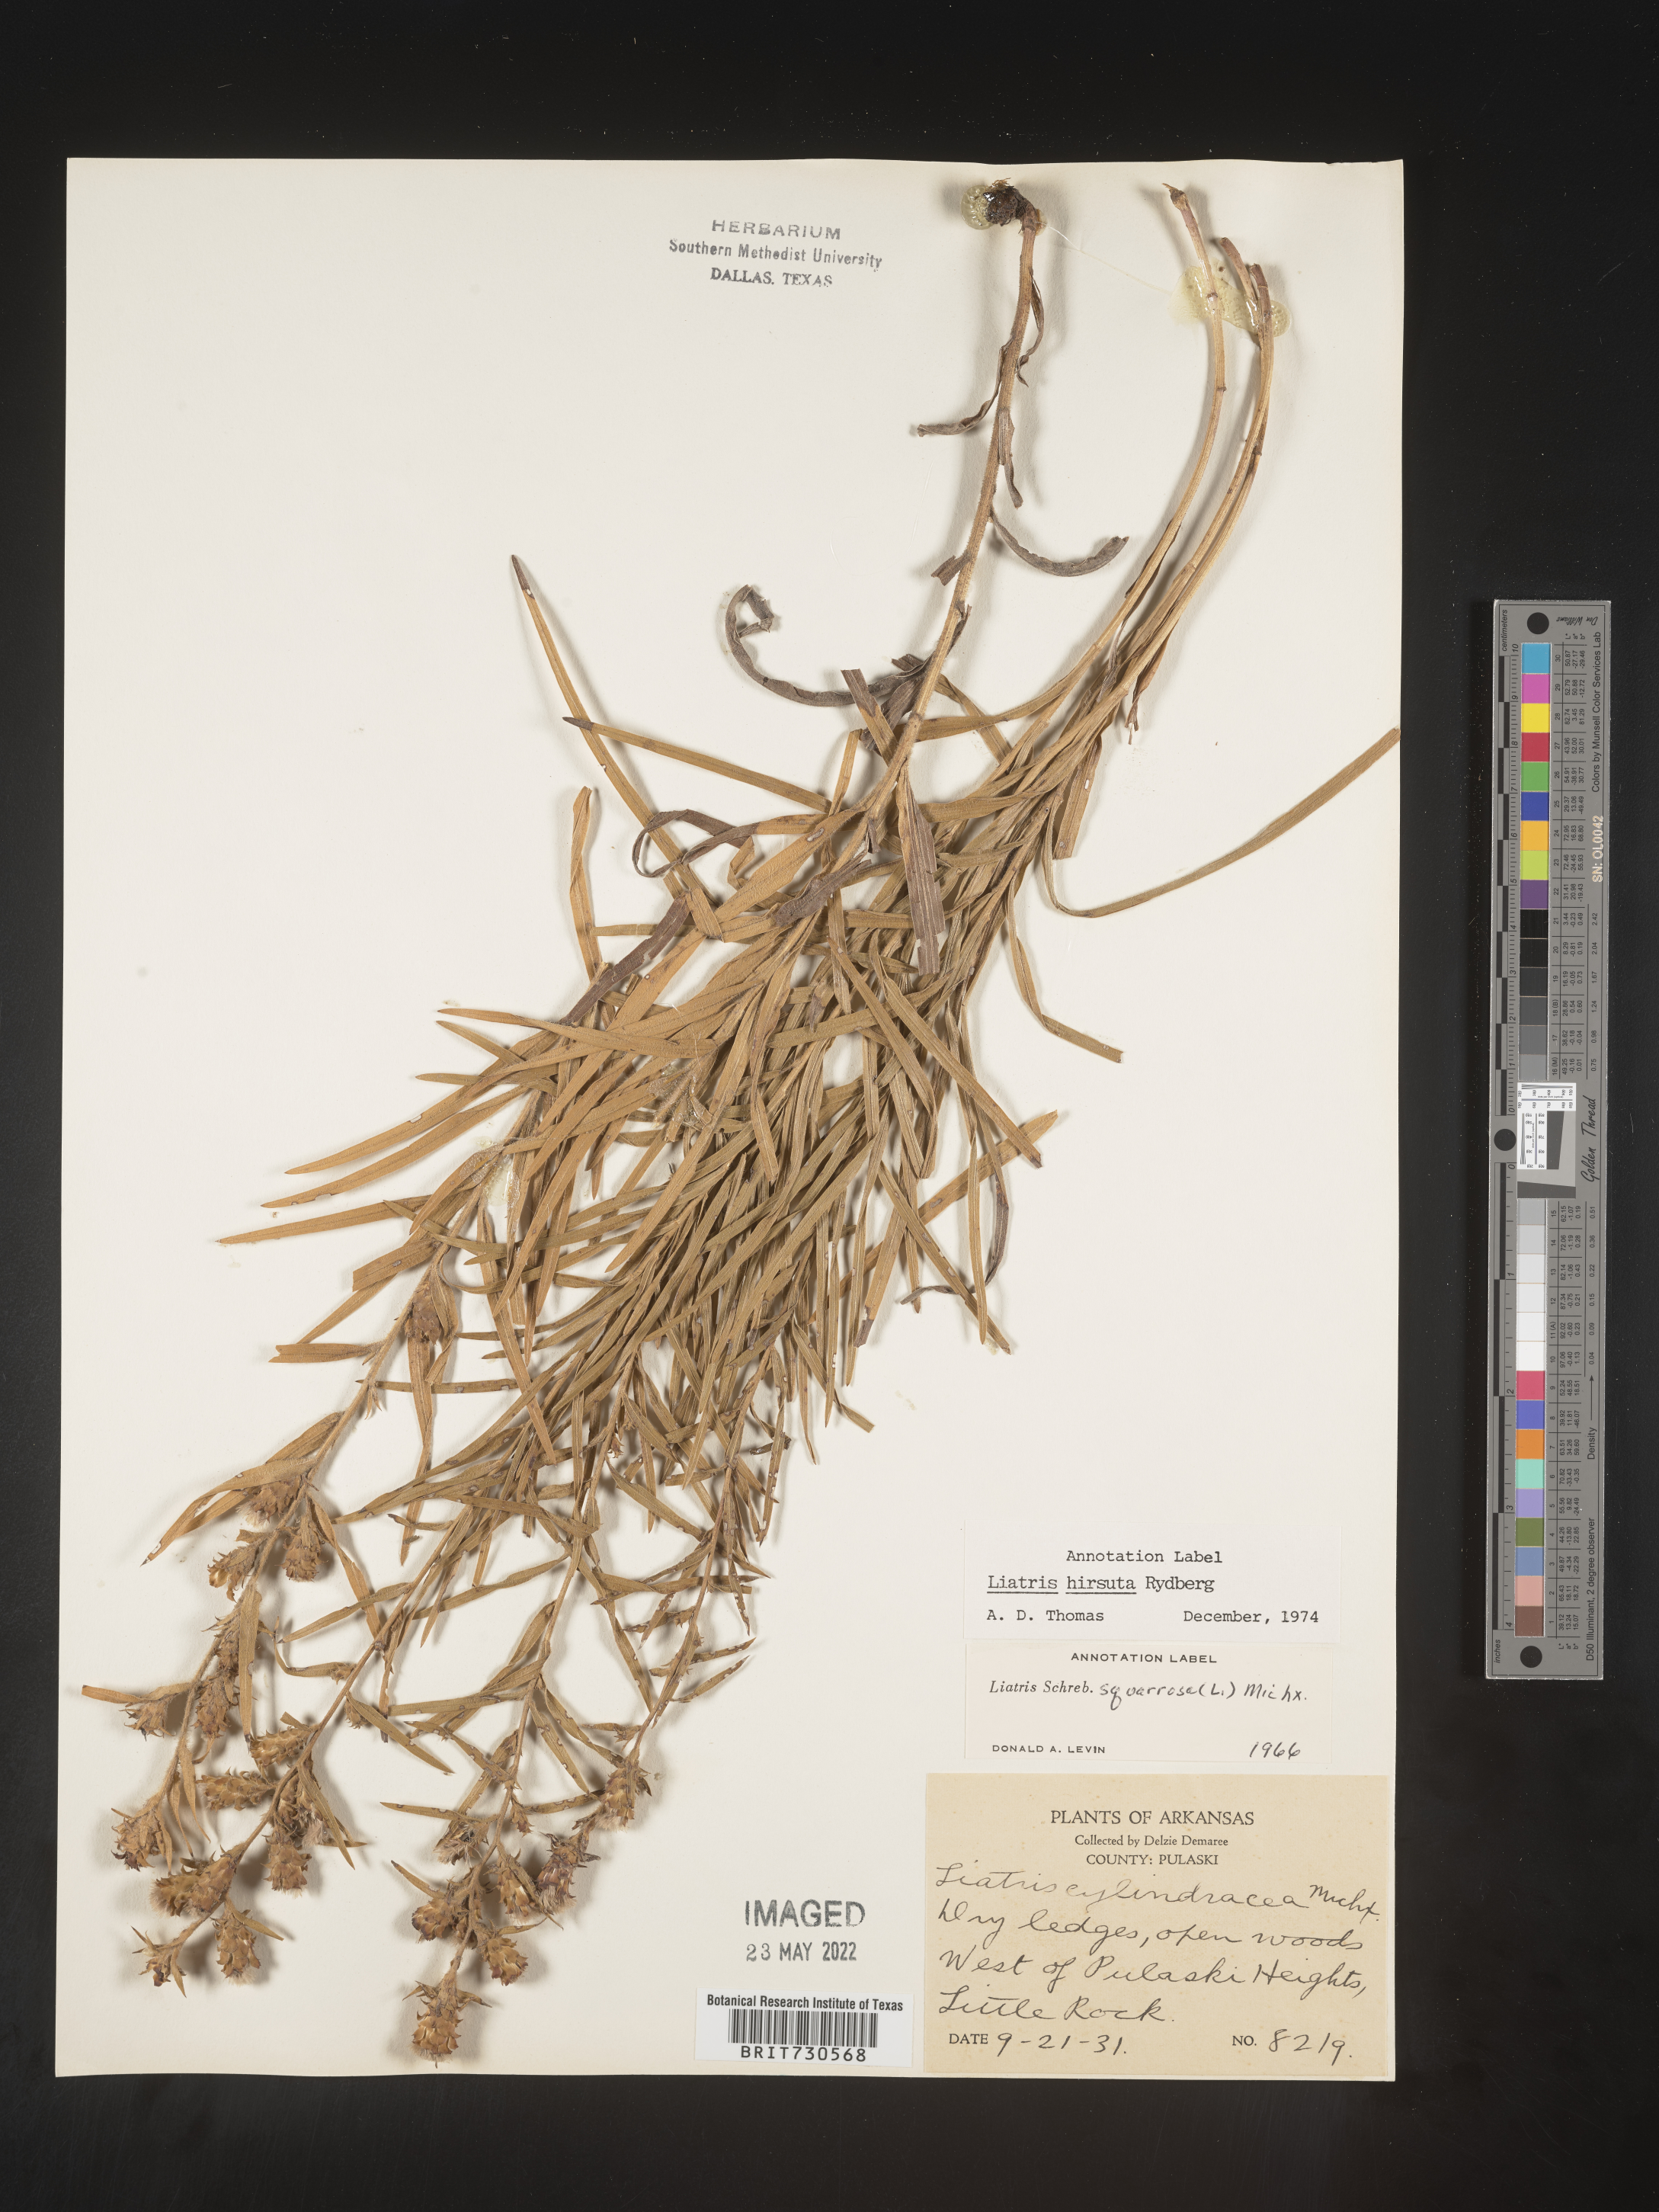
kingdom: Plantae
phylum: Tracheophyta
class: Magnoliopsida
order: Asterales
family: Asteraceae
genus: Liatris
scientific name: Liatris hirsuta
